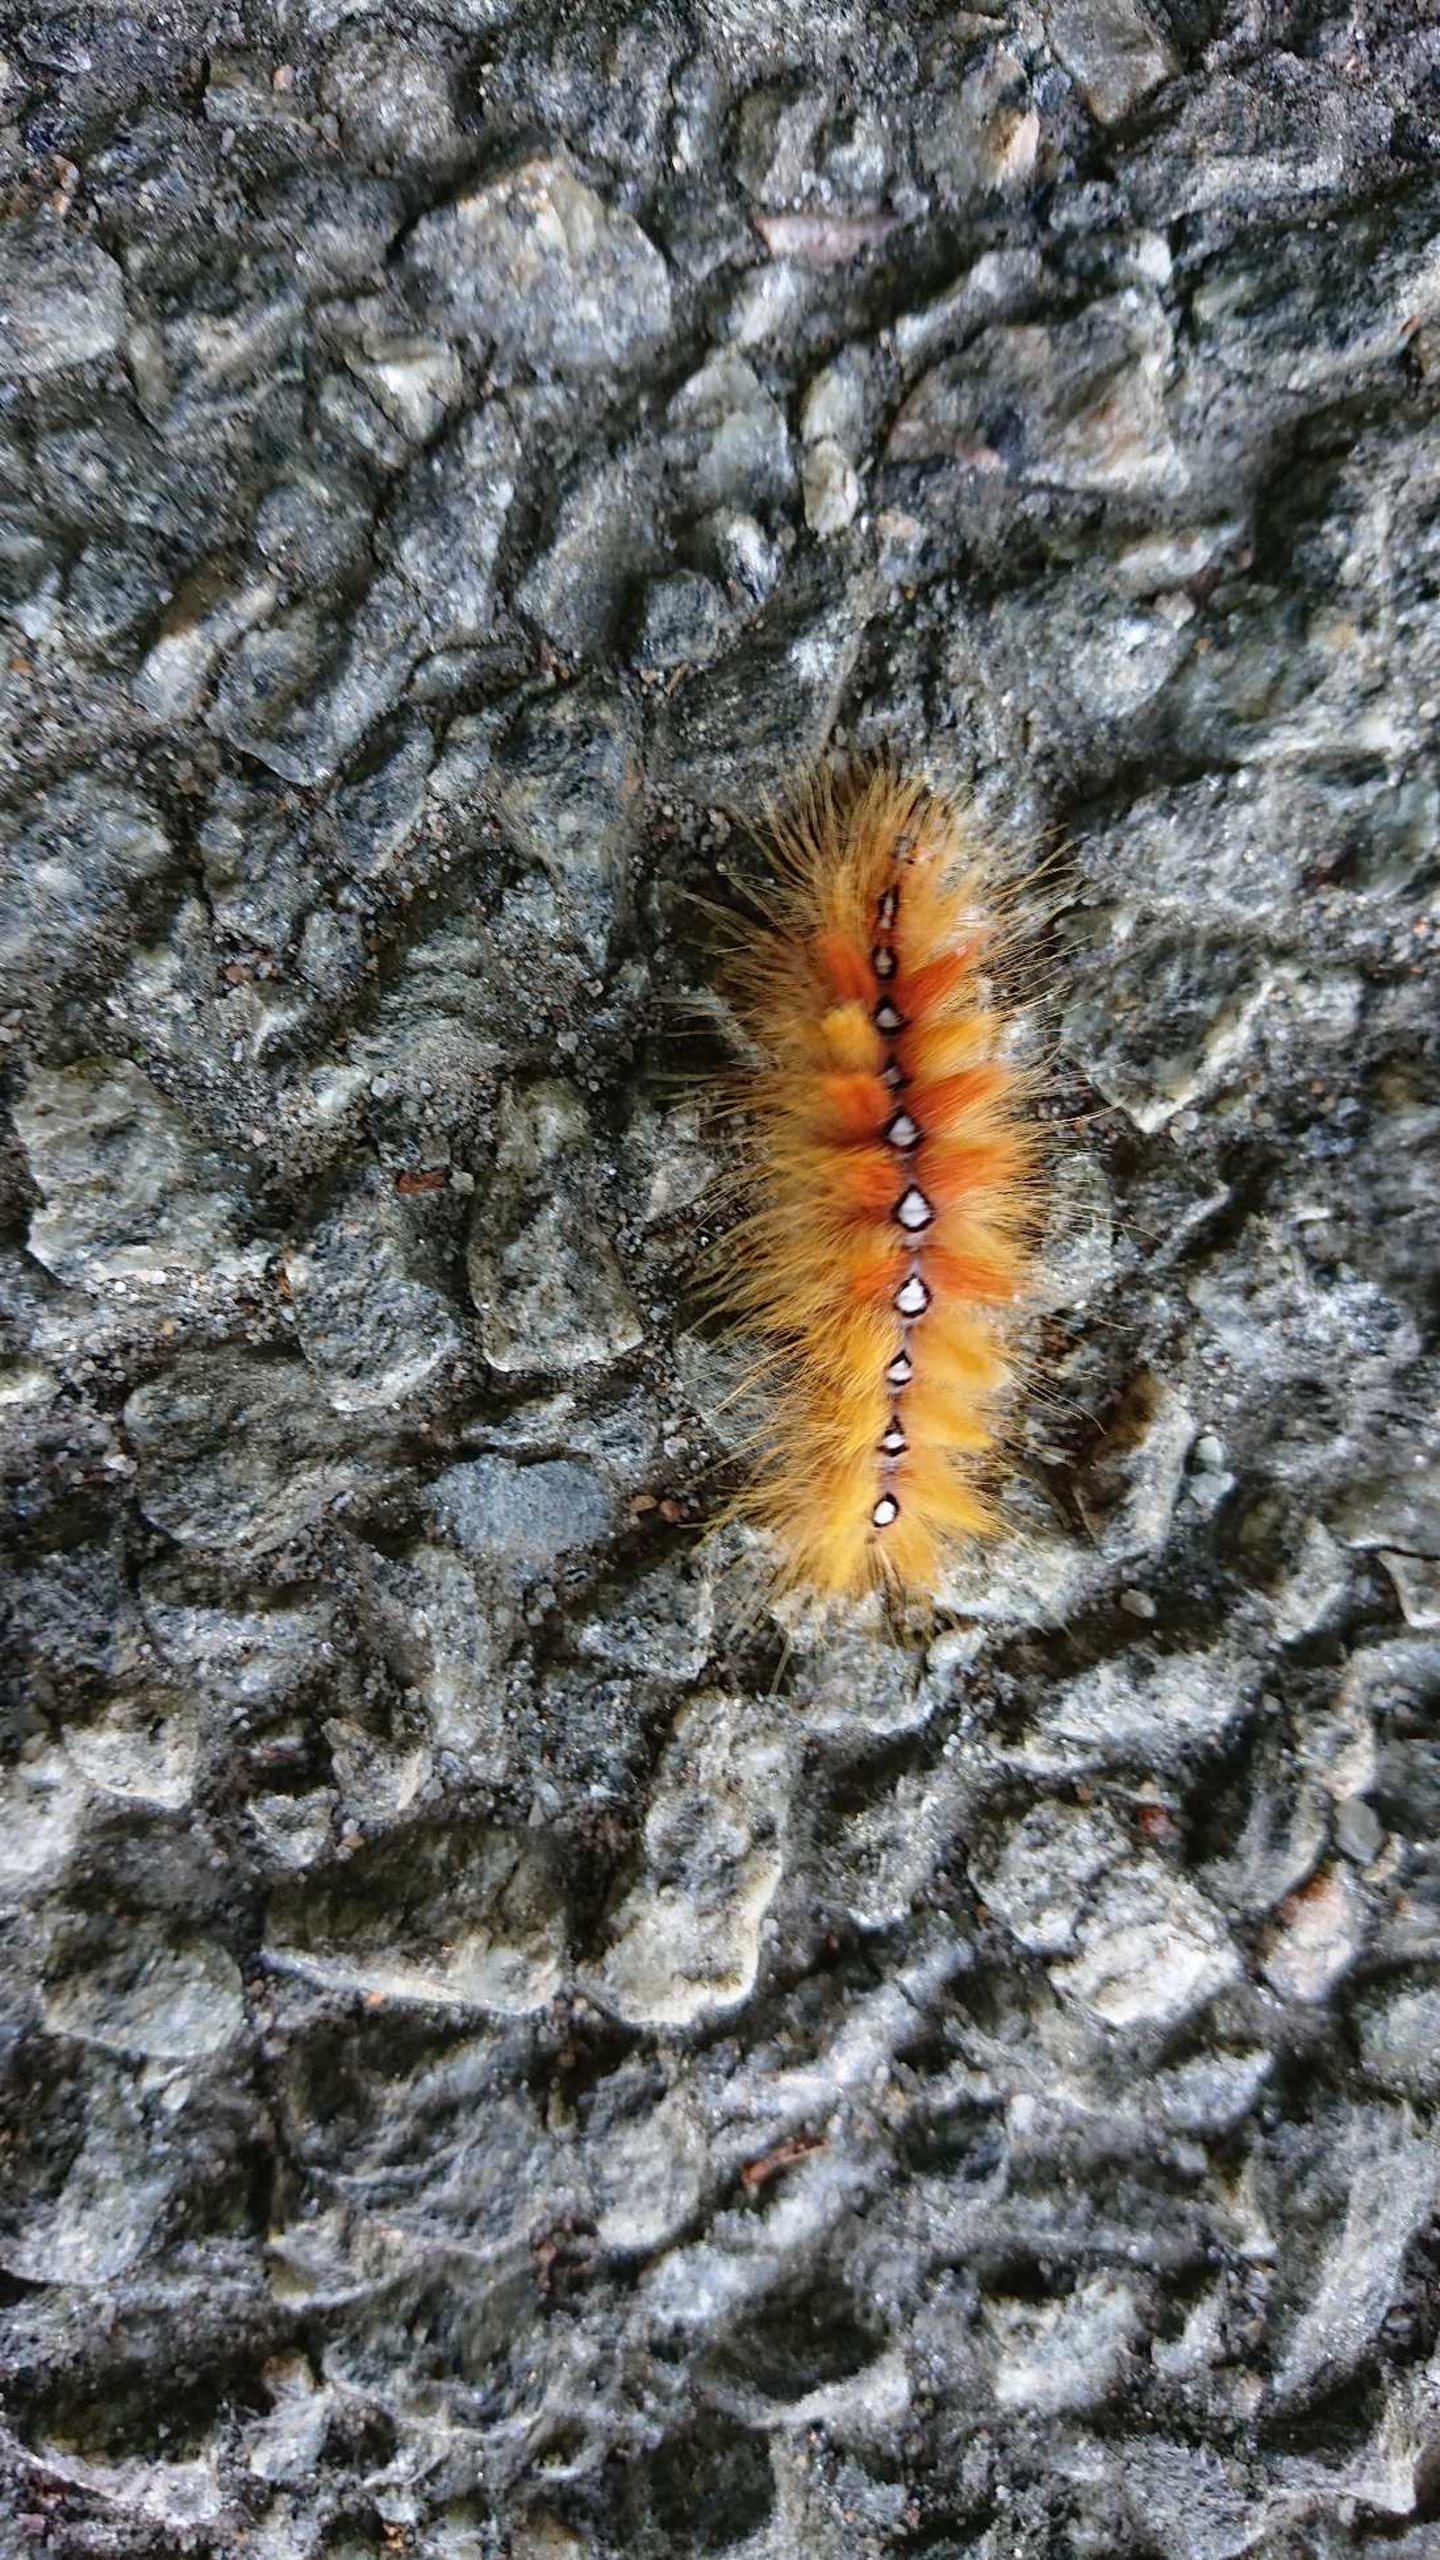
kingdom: Animalia
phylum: Arthropoda
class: Insecta
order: Lepidoptera
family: Noctuidae
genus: Acronicta
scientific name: Acronicta aceris
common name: Ahornugle
